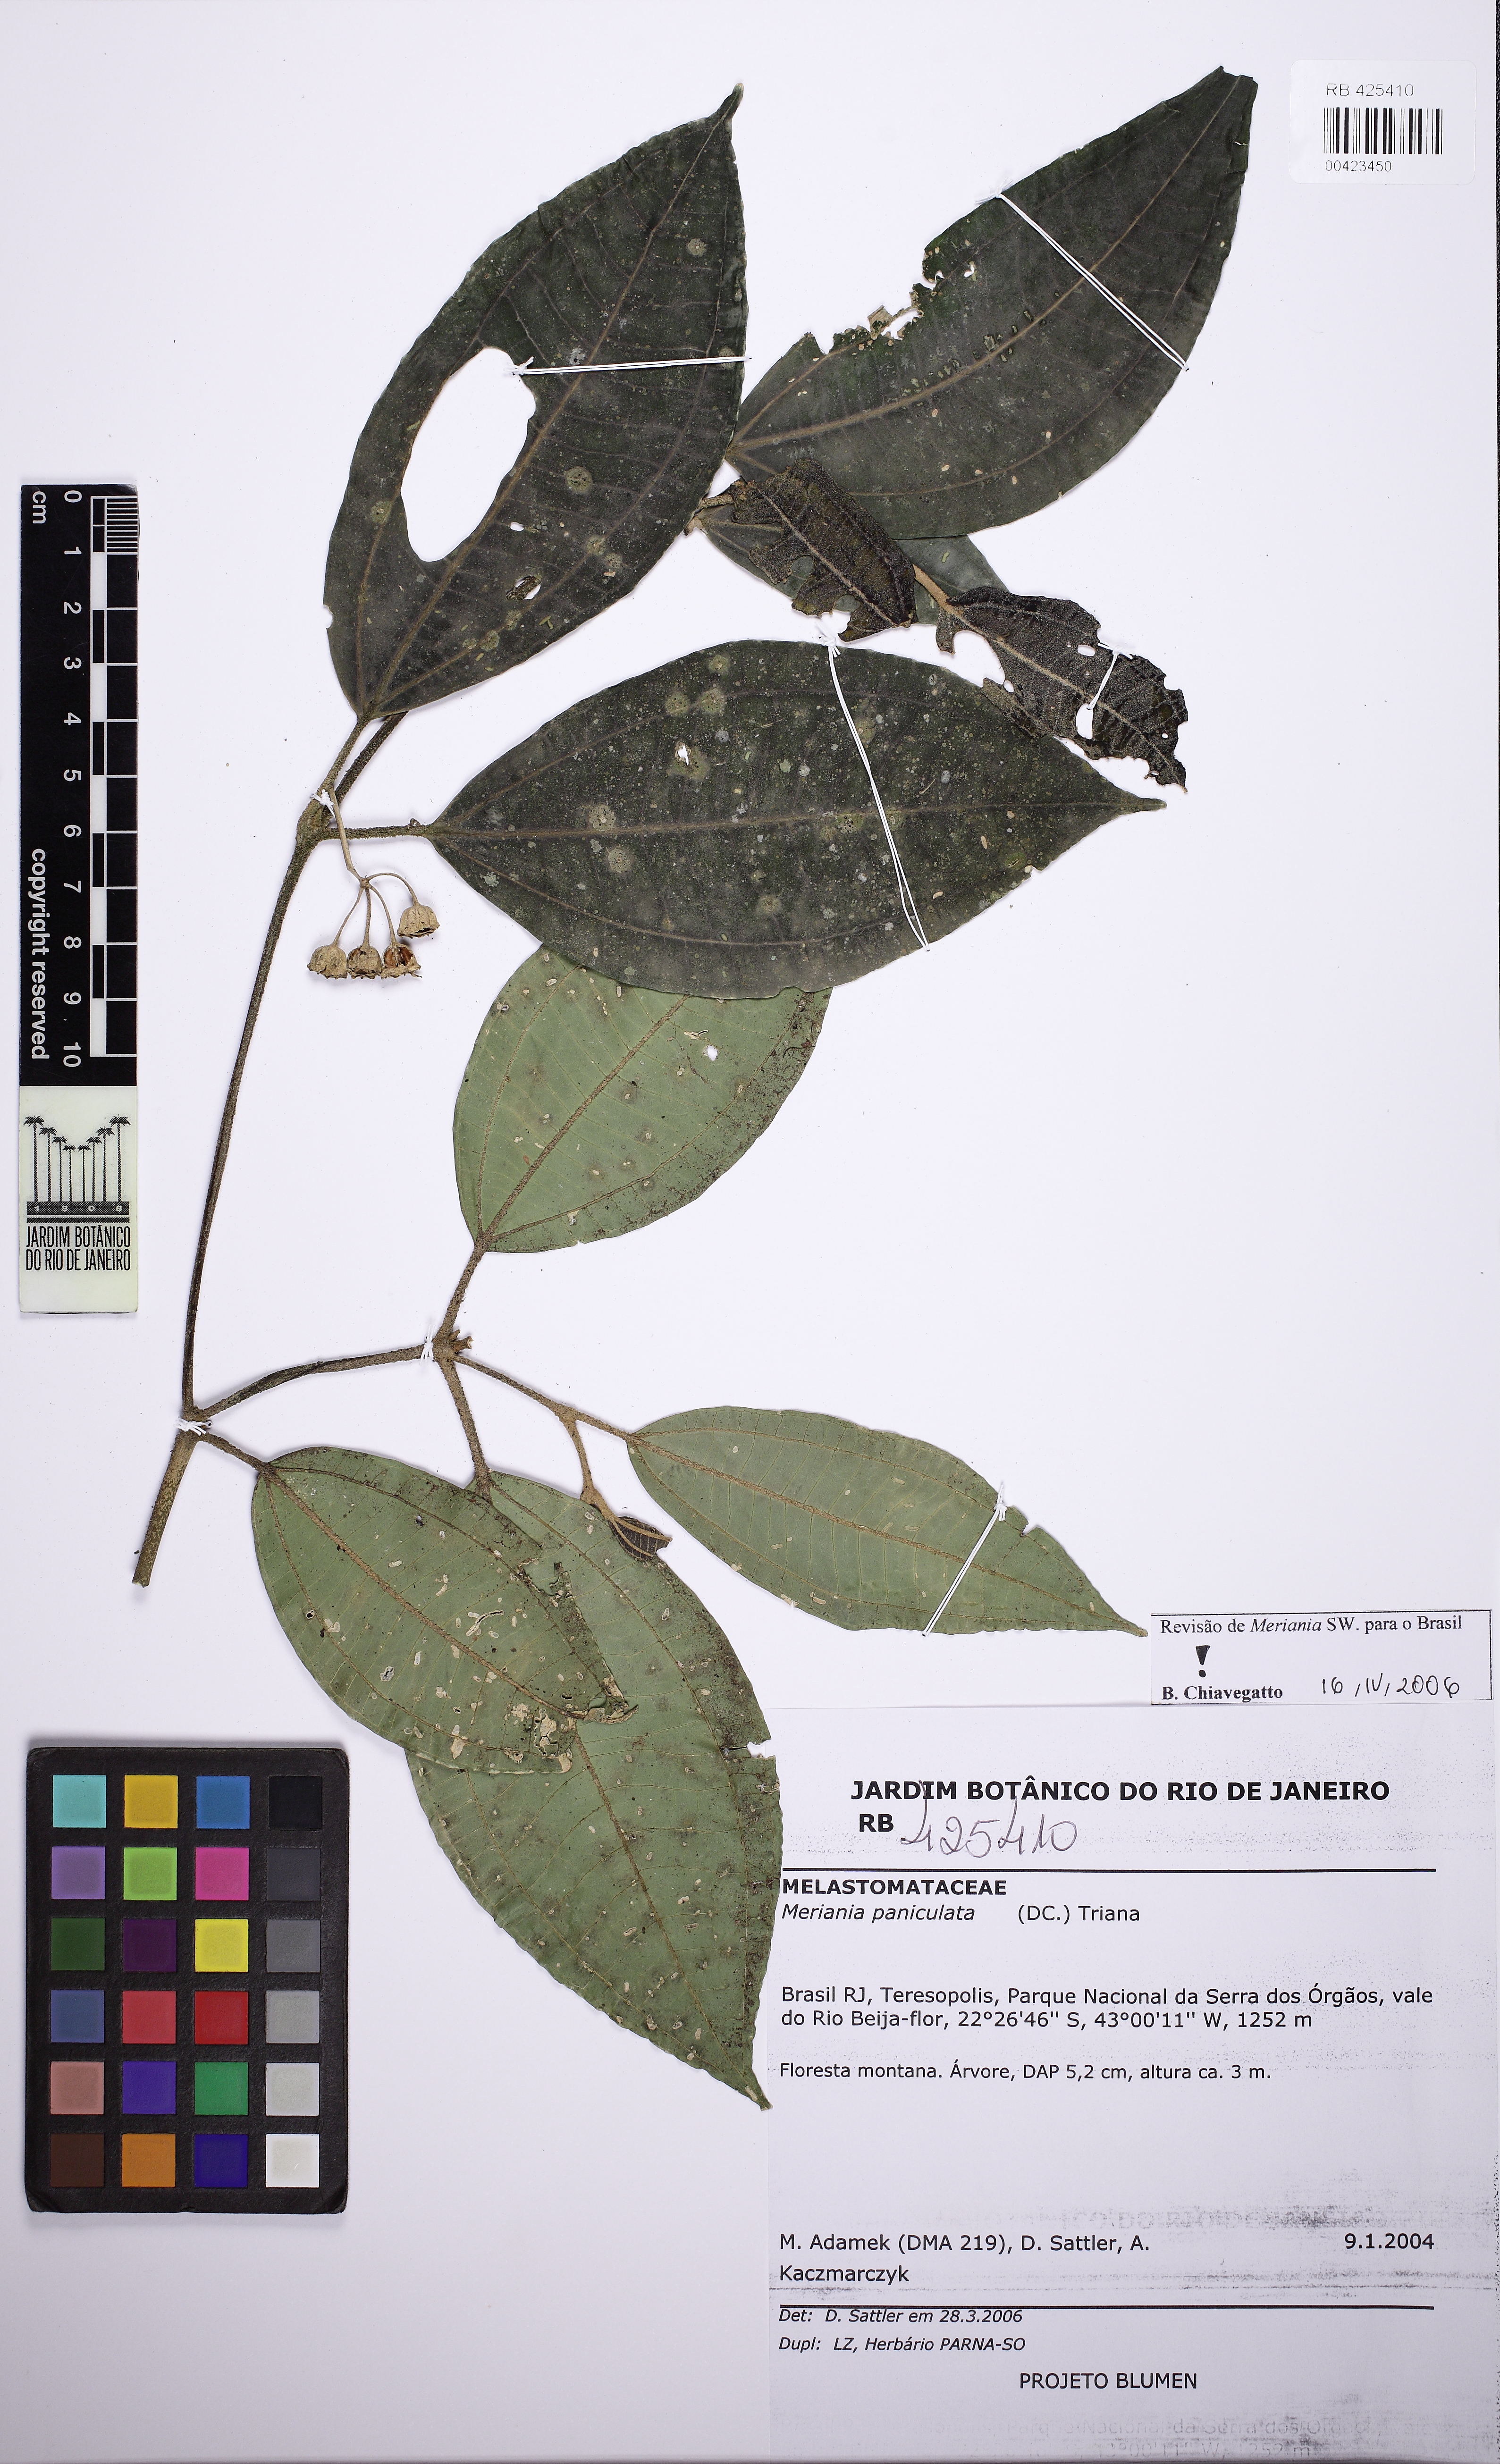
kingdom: Plantae
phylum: Tracheophyta
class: Magnoliopsida
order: Myrtales
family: Melastomataceae
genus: Meriania
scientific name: Meriania paniculata
